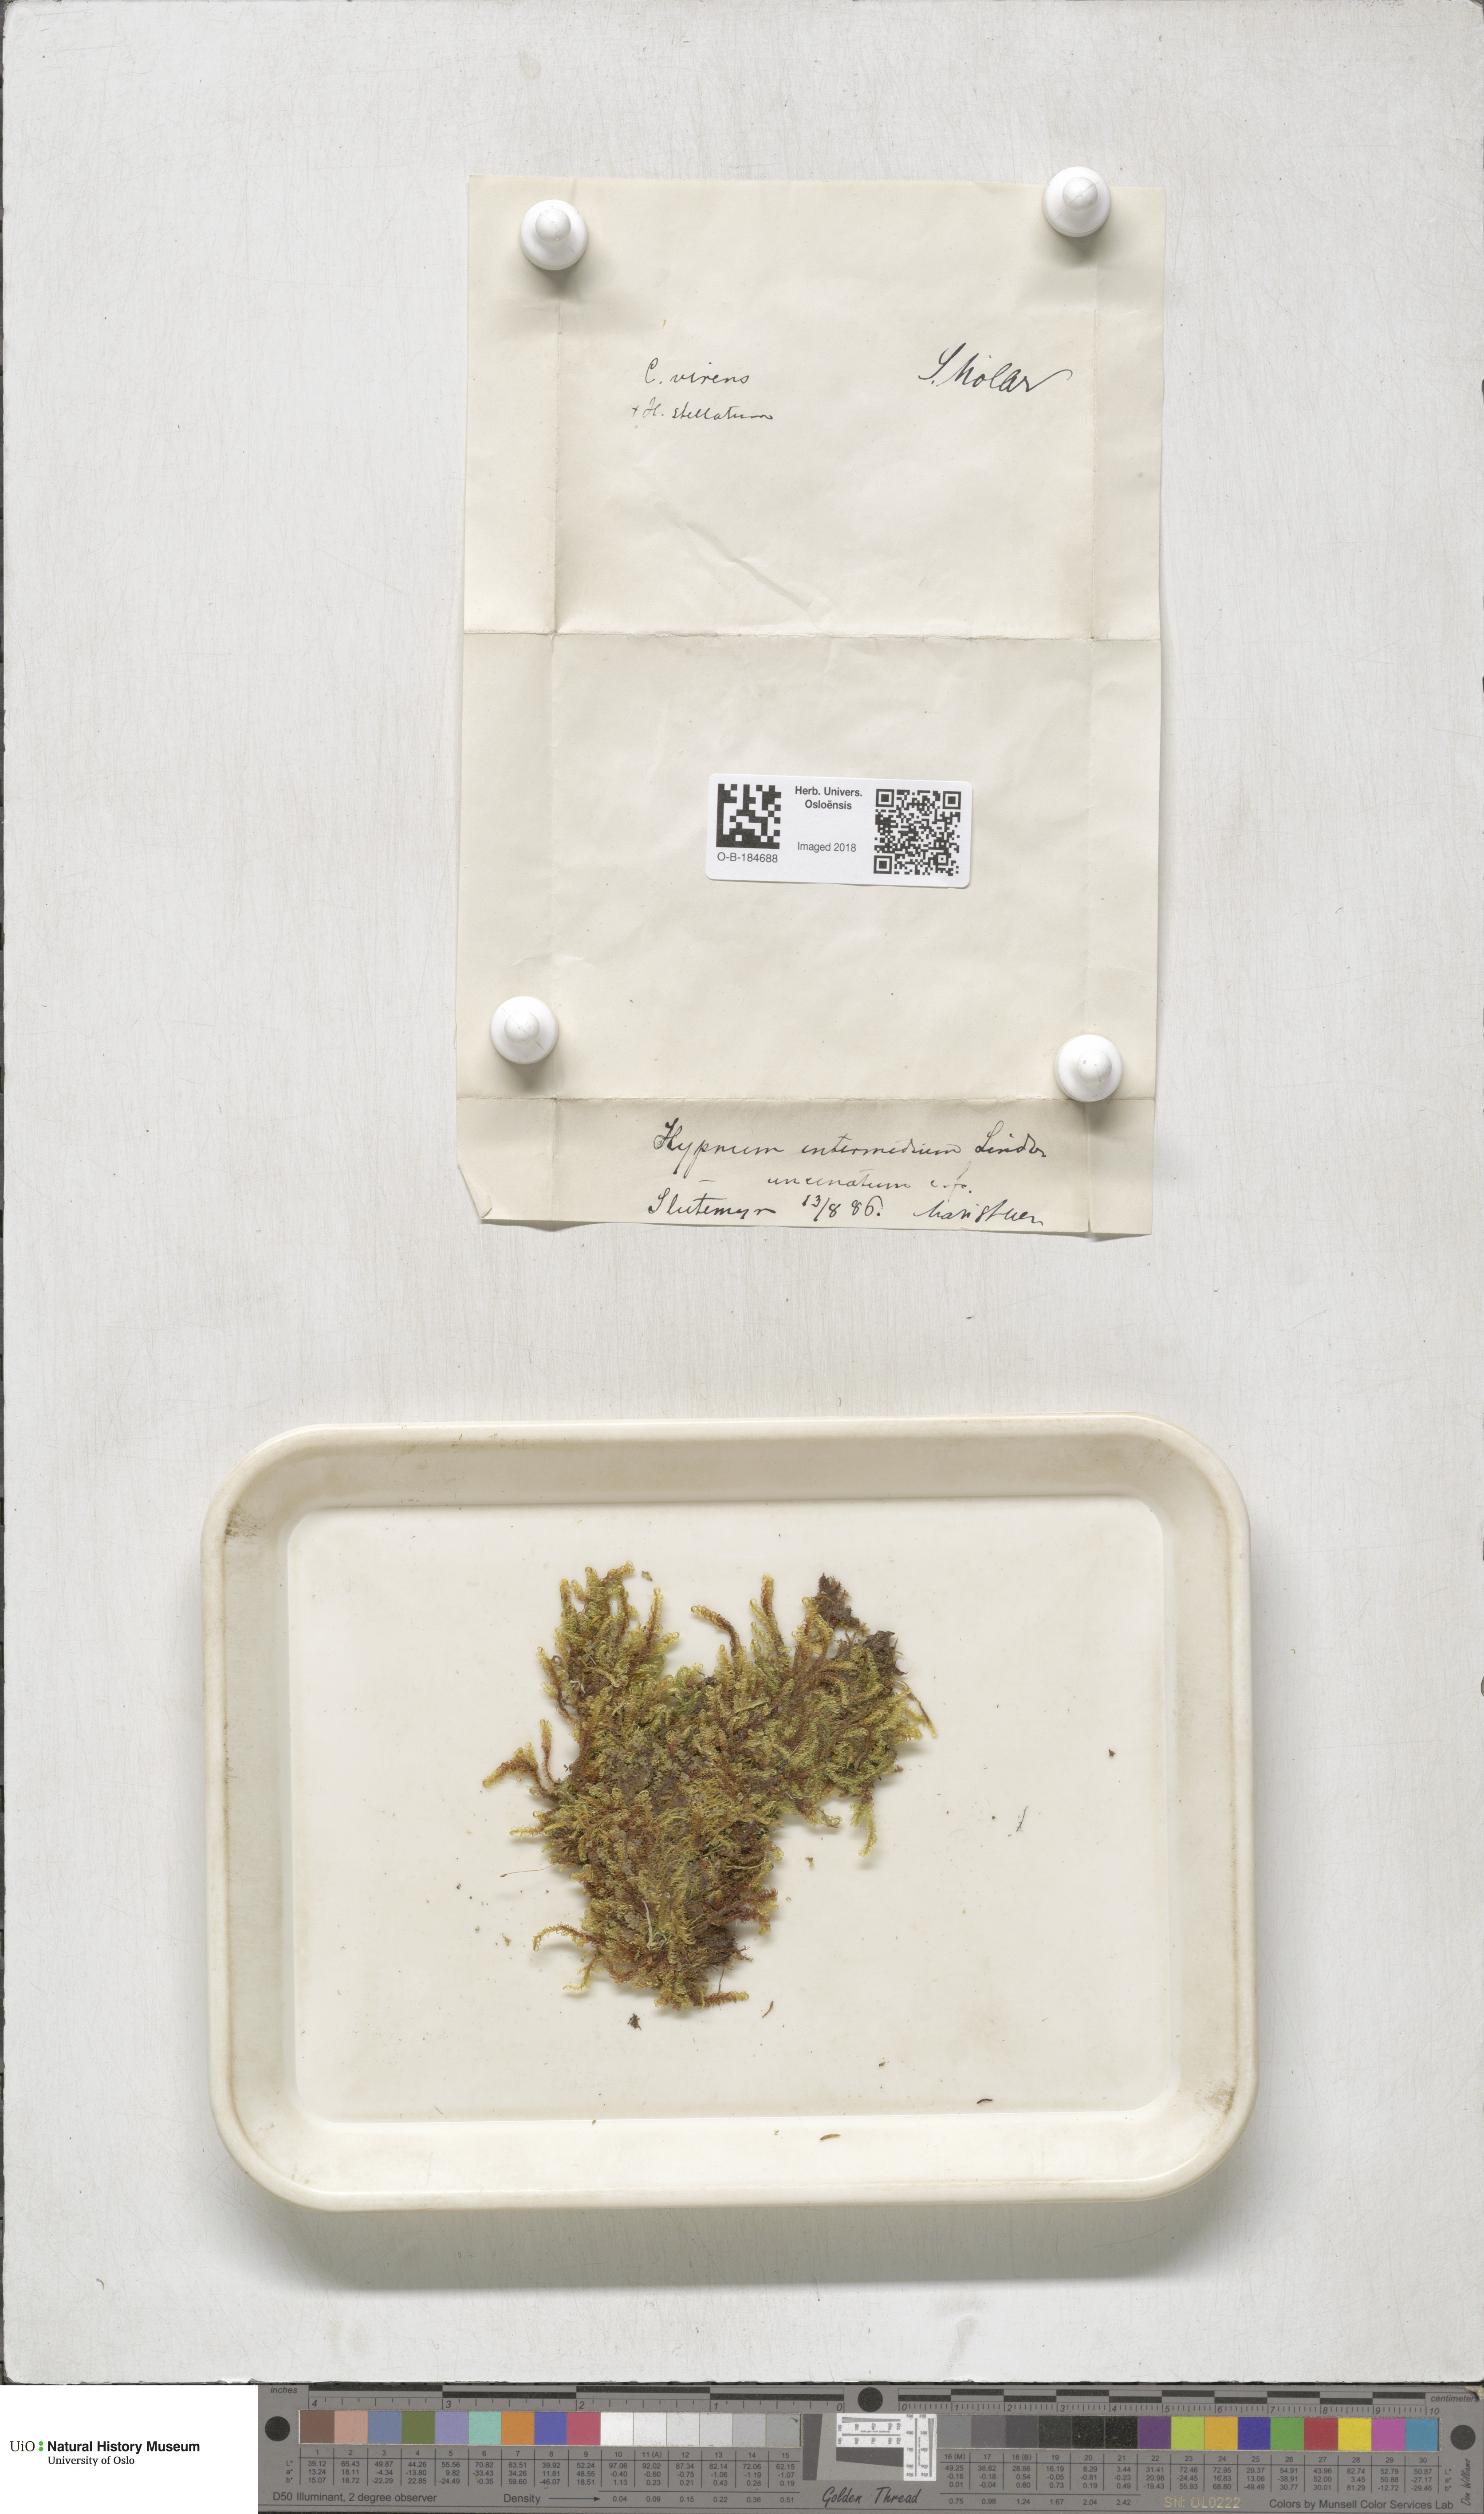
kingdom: Plantae
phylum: Bryophyta
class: Bryopsida
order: Hypnales
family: Scorpidiaceae
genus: Scorpidium
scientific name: Scorpidium cossonii
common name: Cosson's hook moss
